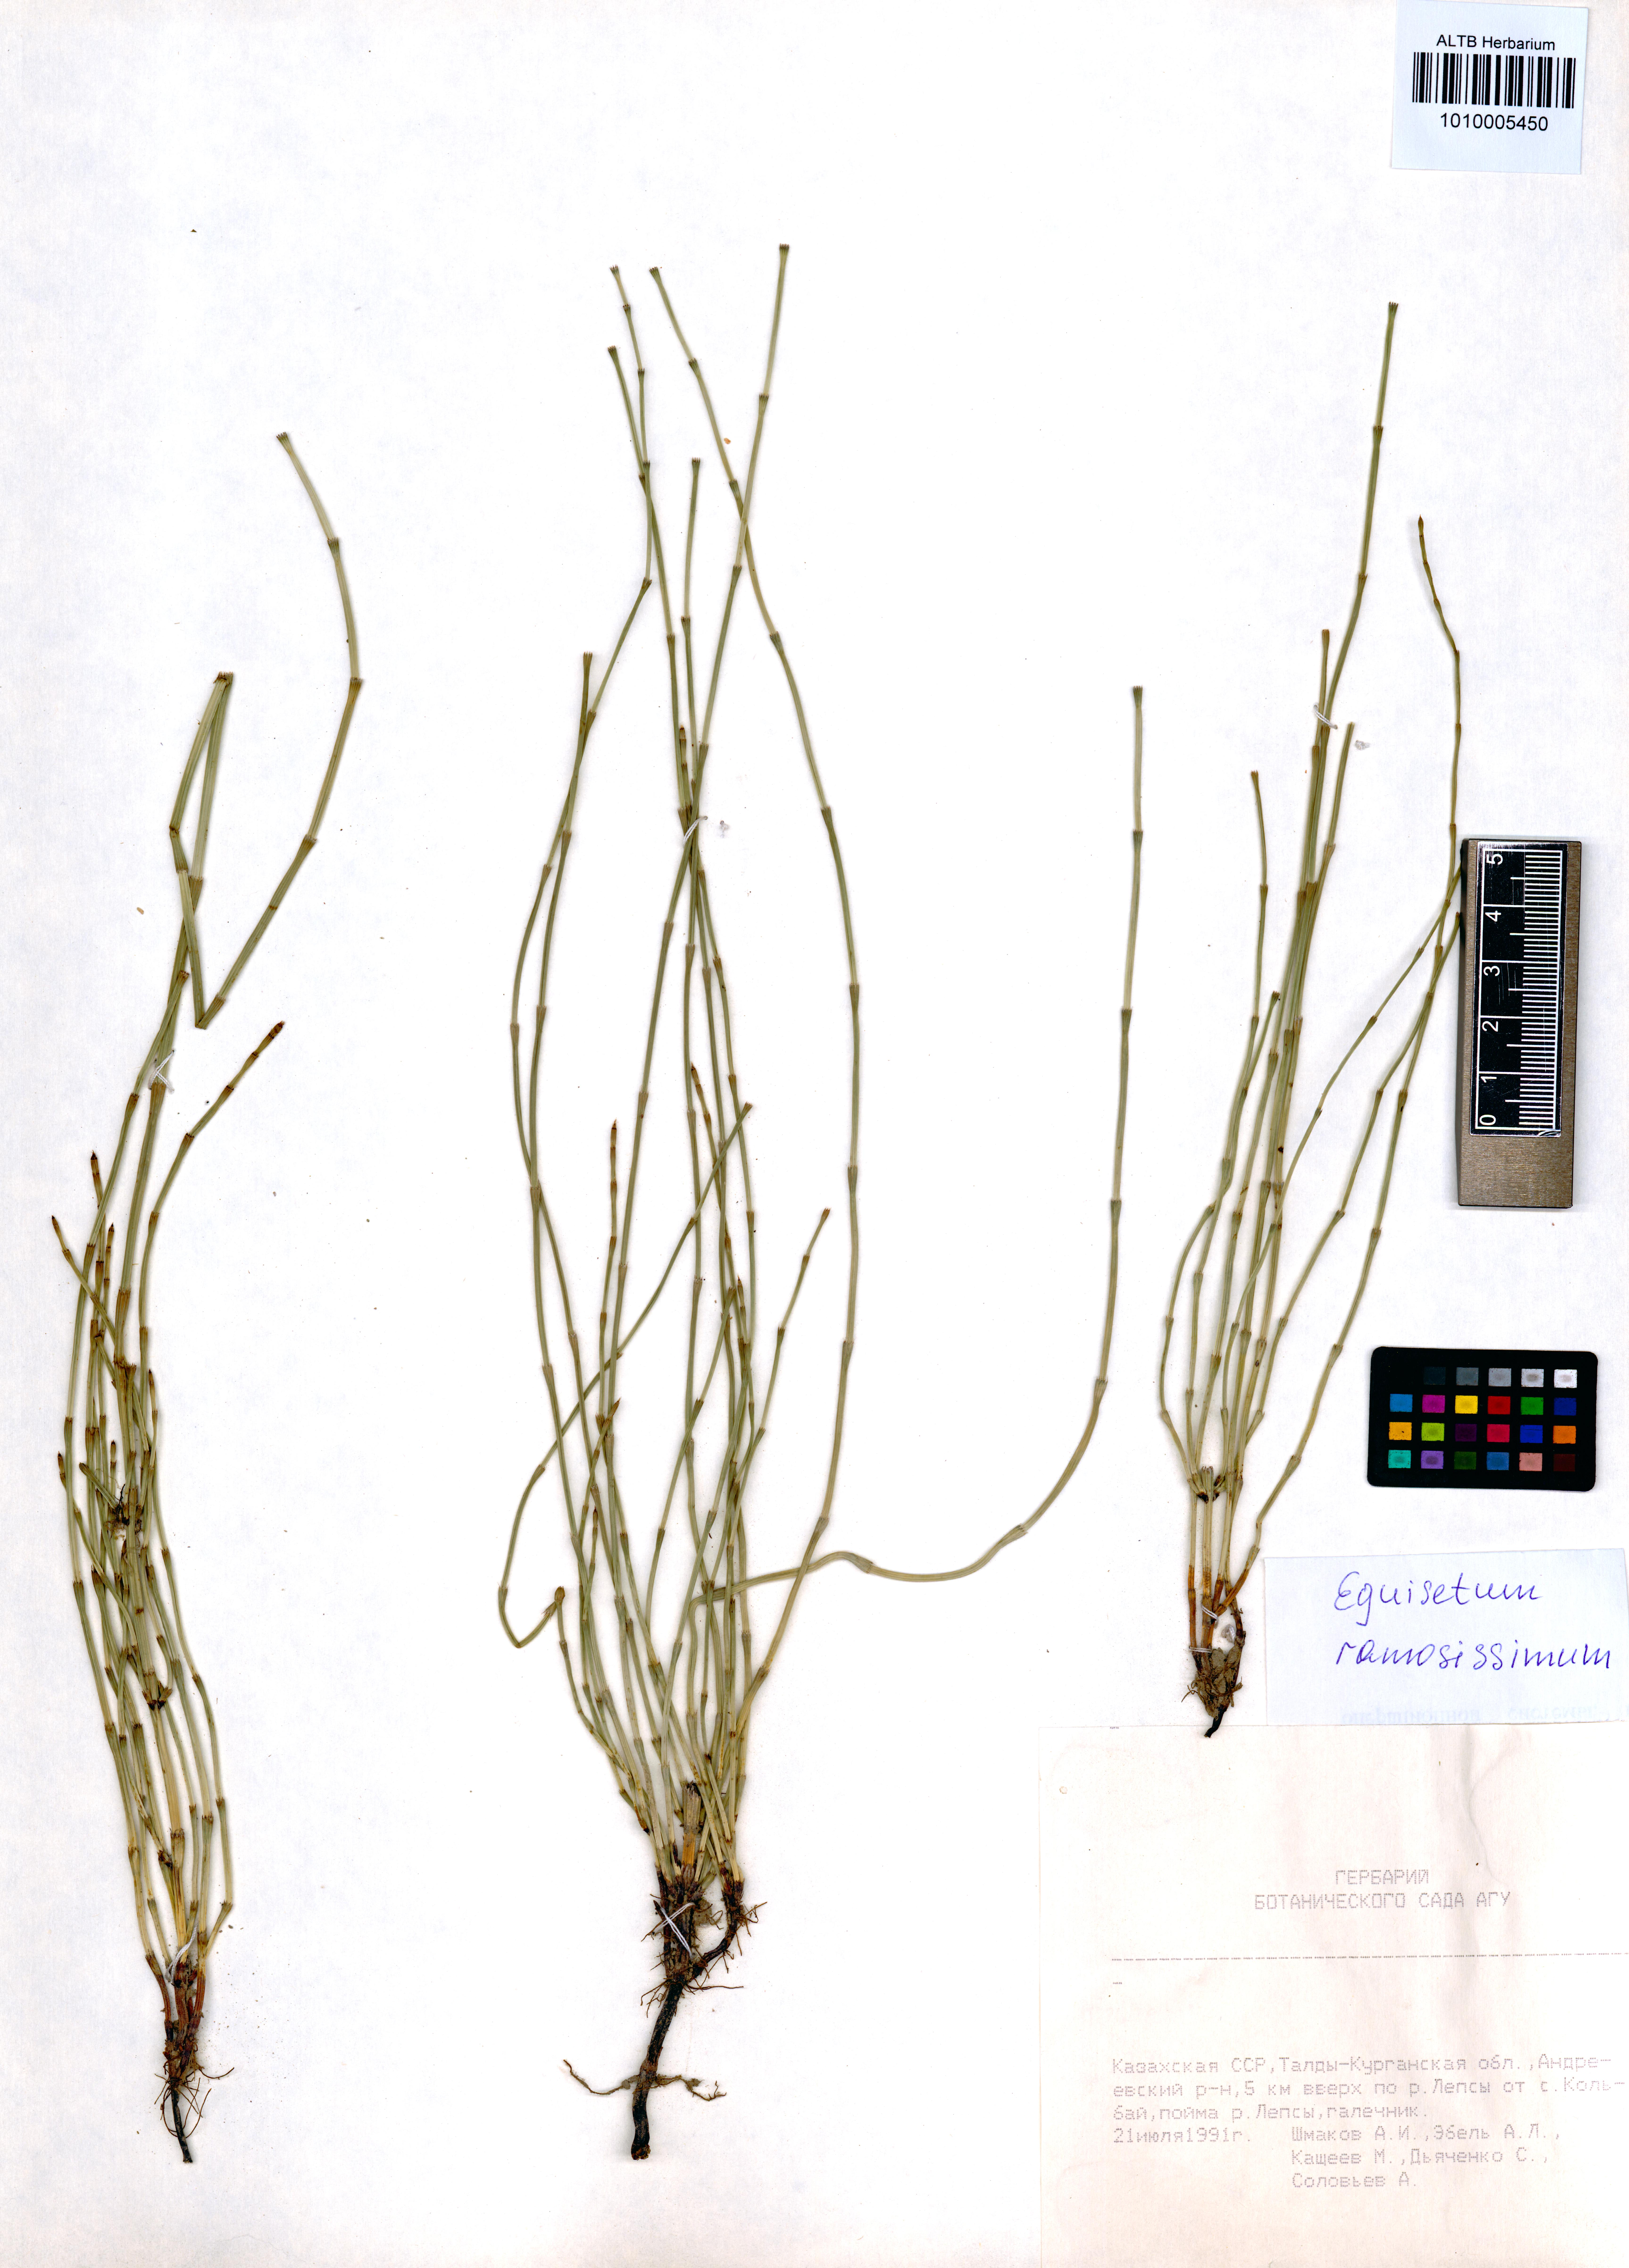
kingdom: Plantae
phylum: Tracheophyta
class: Polypodiopsida
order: Equisetales
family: Equisetaceae
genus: Equisetum
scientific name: Equisetum ramosissimum
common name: Branched horsetail
